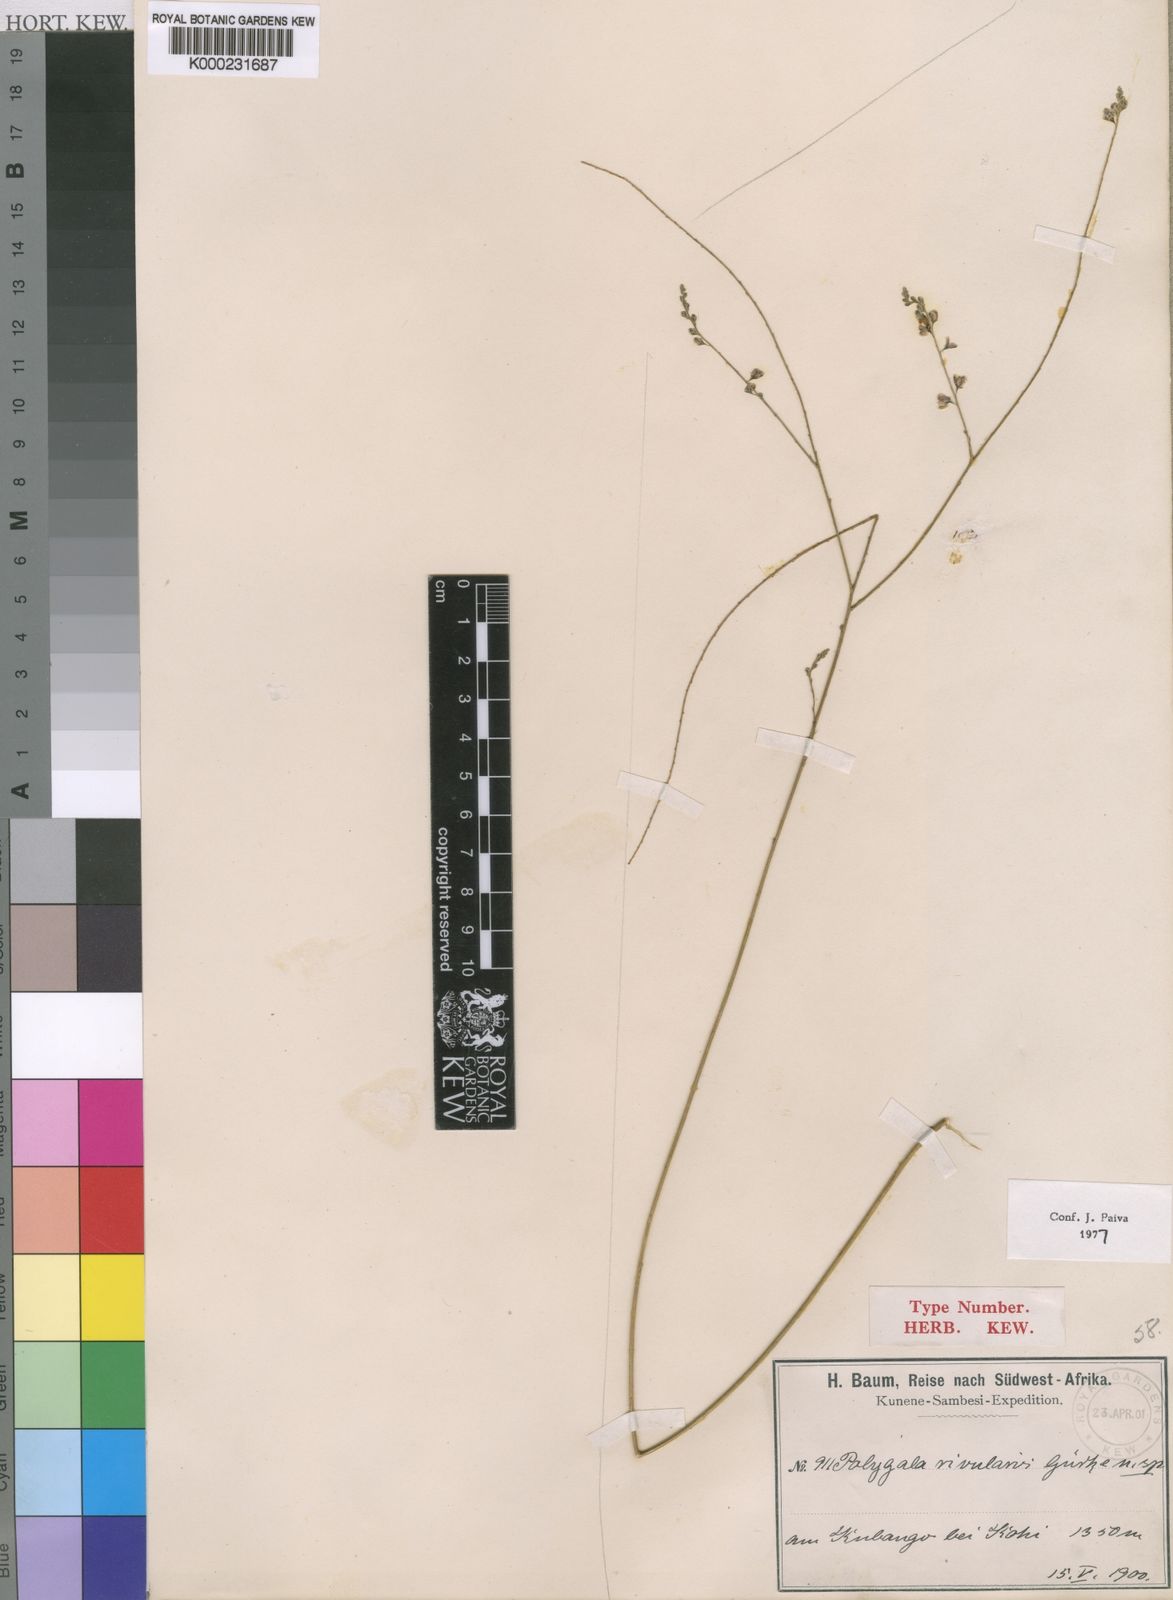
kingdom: Plantae
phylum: Tracheophyta
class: Magnoliopsida
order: Fabales
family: Polygalaceae
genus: Polygala
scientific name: Polygala
